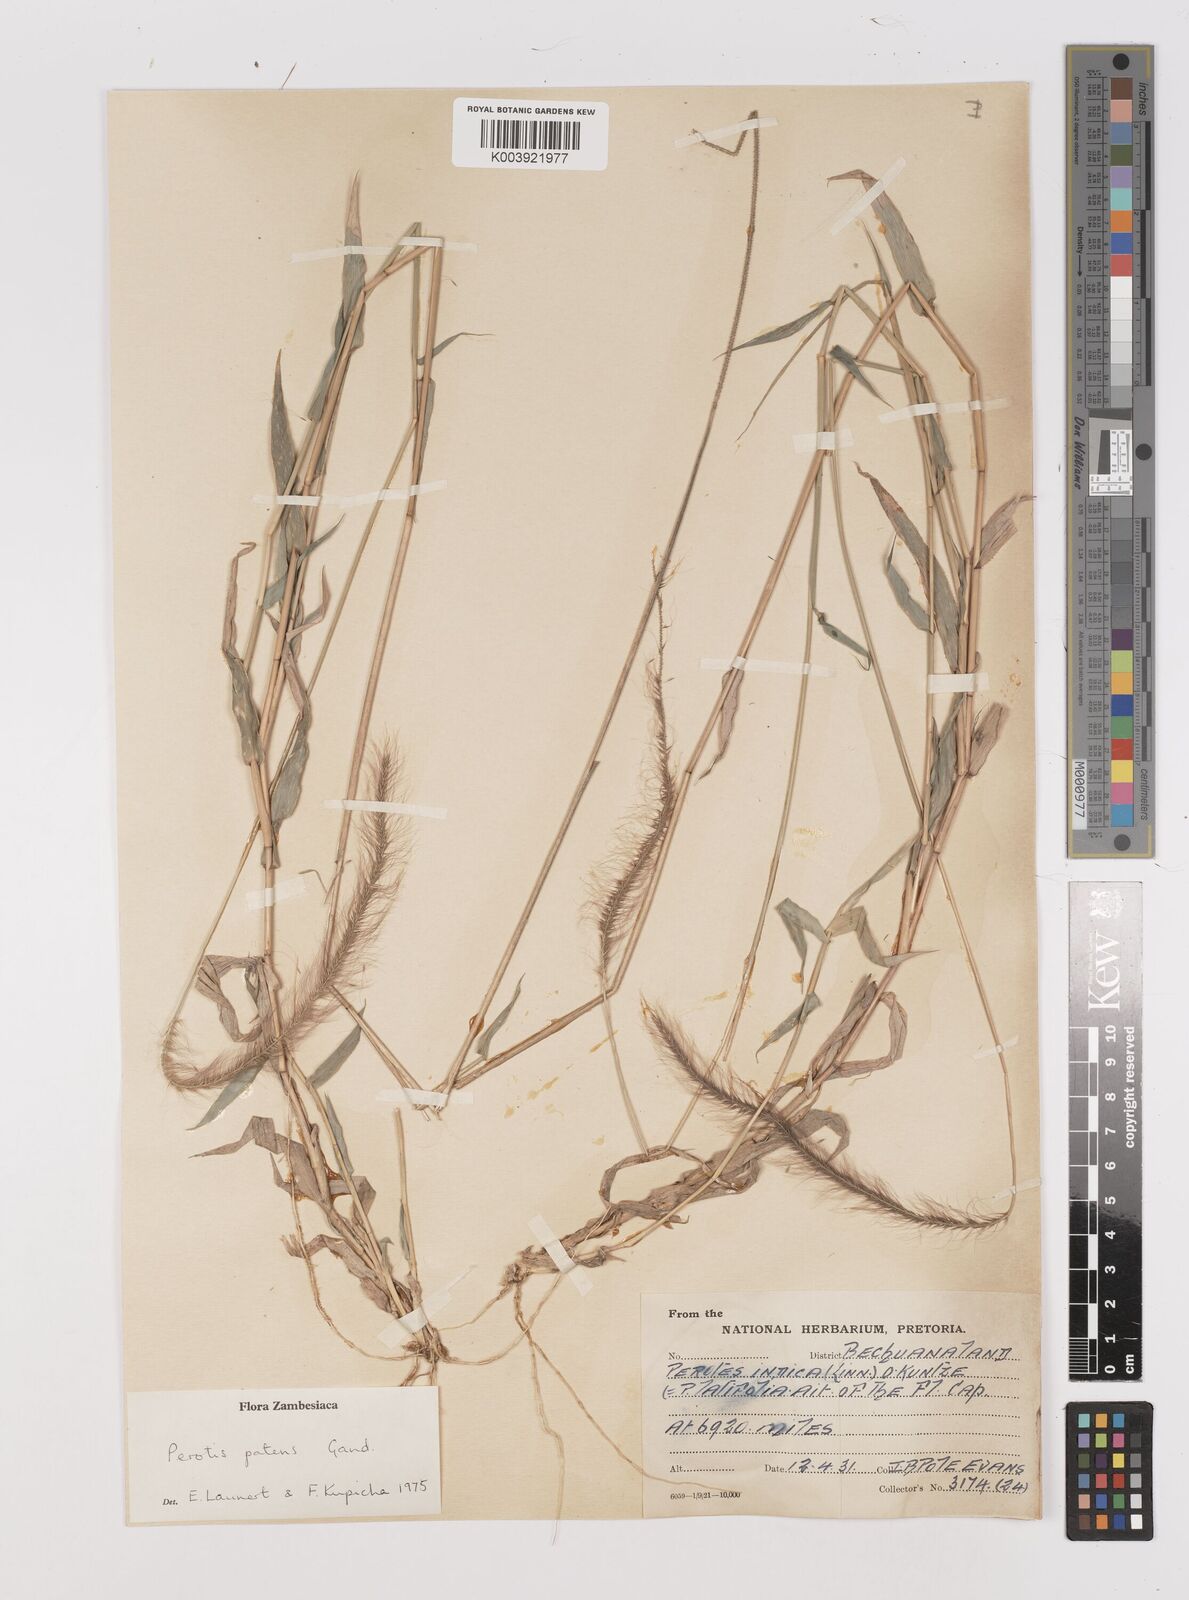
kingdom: Plantae
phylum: Tracheophyta
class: Liliopsida
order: Poales
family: Poaceae
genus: Perotis
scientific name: Perotis patens
